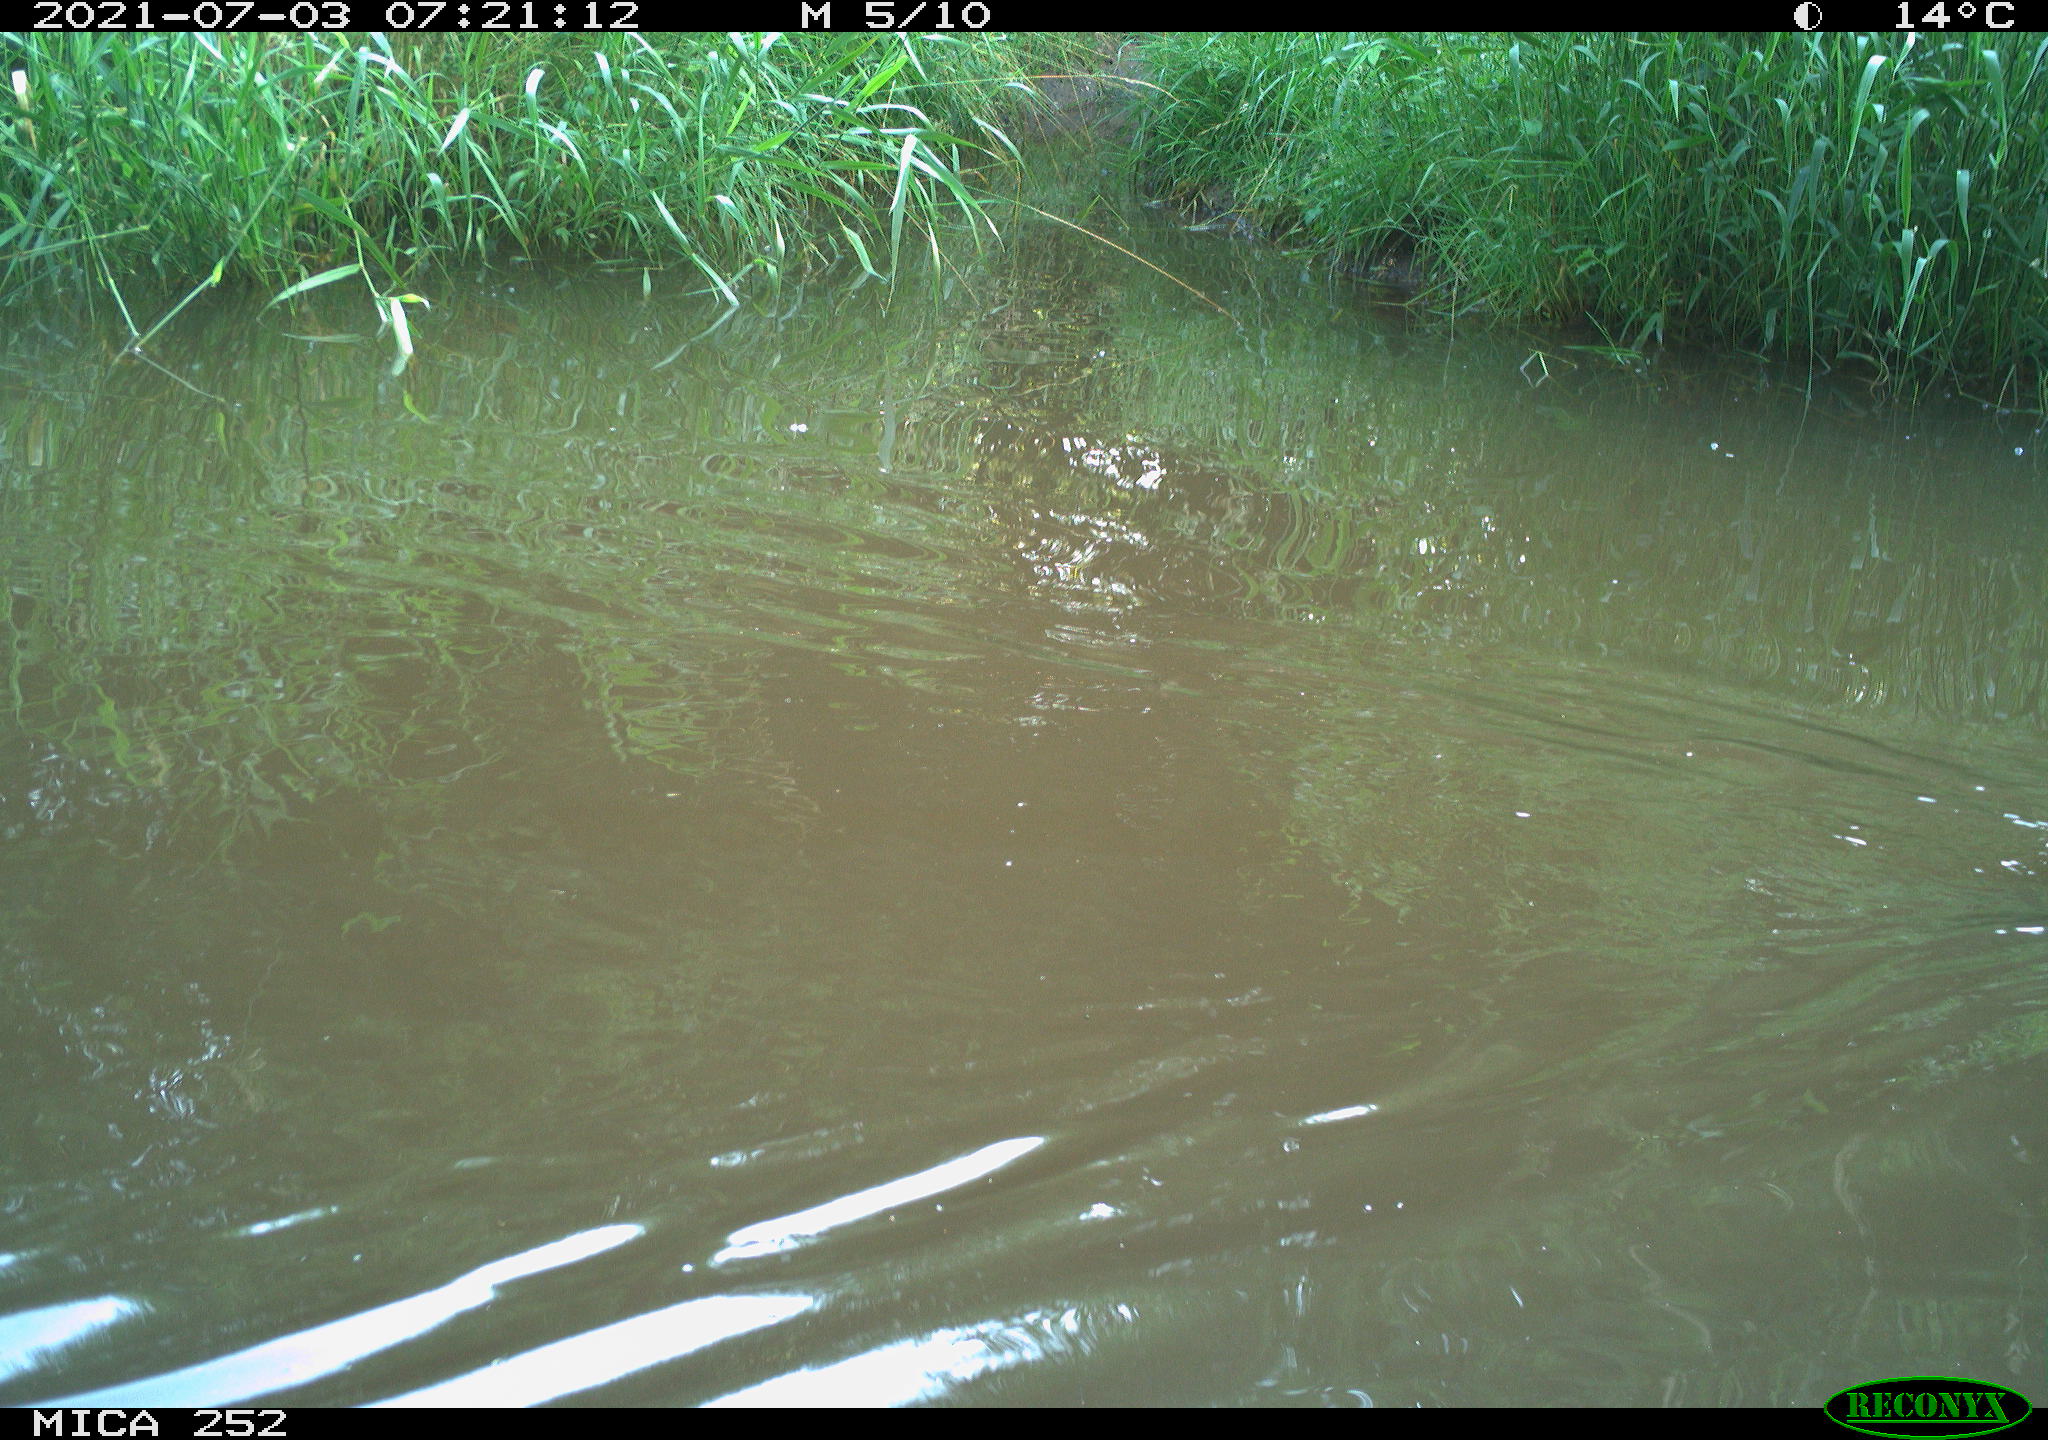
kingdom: Animalia
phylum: Chordata
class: Aves
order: Anseriformes
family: Anatidae
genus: Anas
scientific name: Anas
